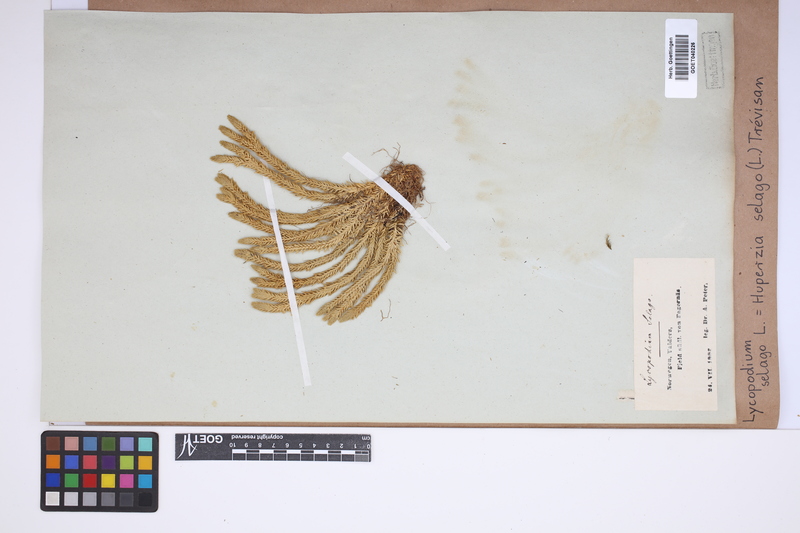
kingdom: Plantae
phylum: Tracheophyta
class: Lycopodiopsida
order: Lycopodiales
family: Lycopodiaceae
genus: Huperzia
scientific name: Huperzia selago
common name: Northern firmoss
